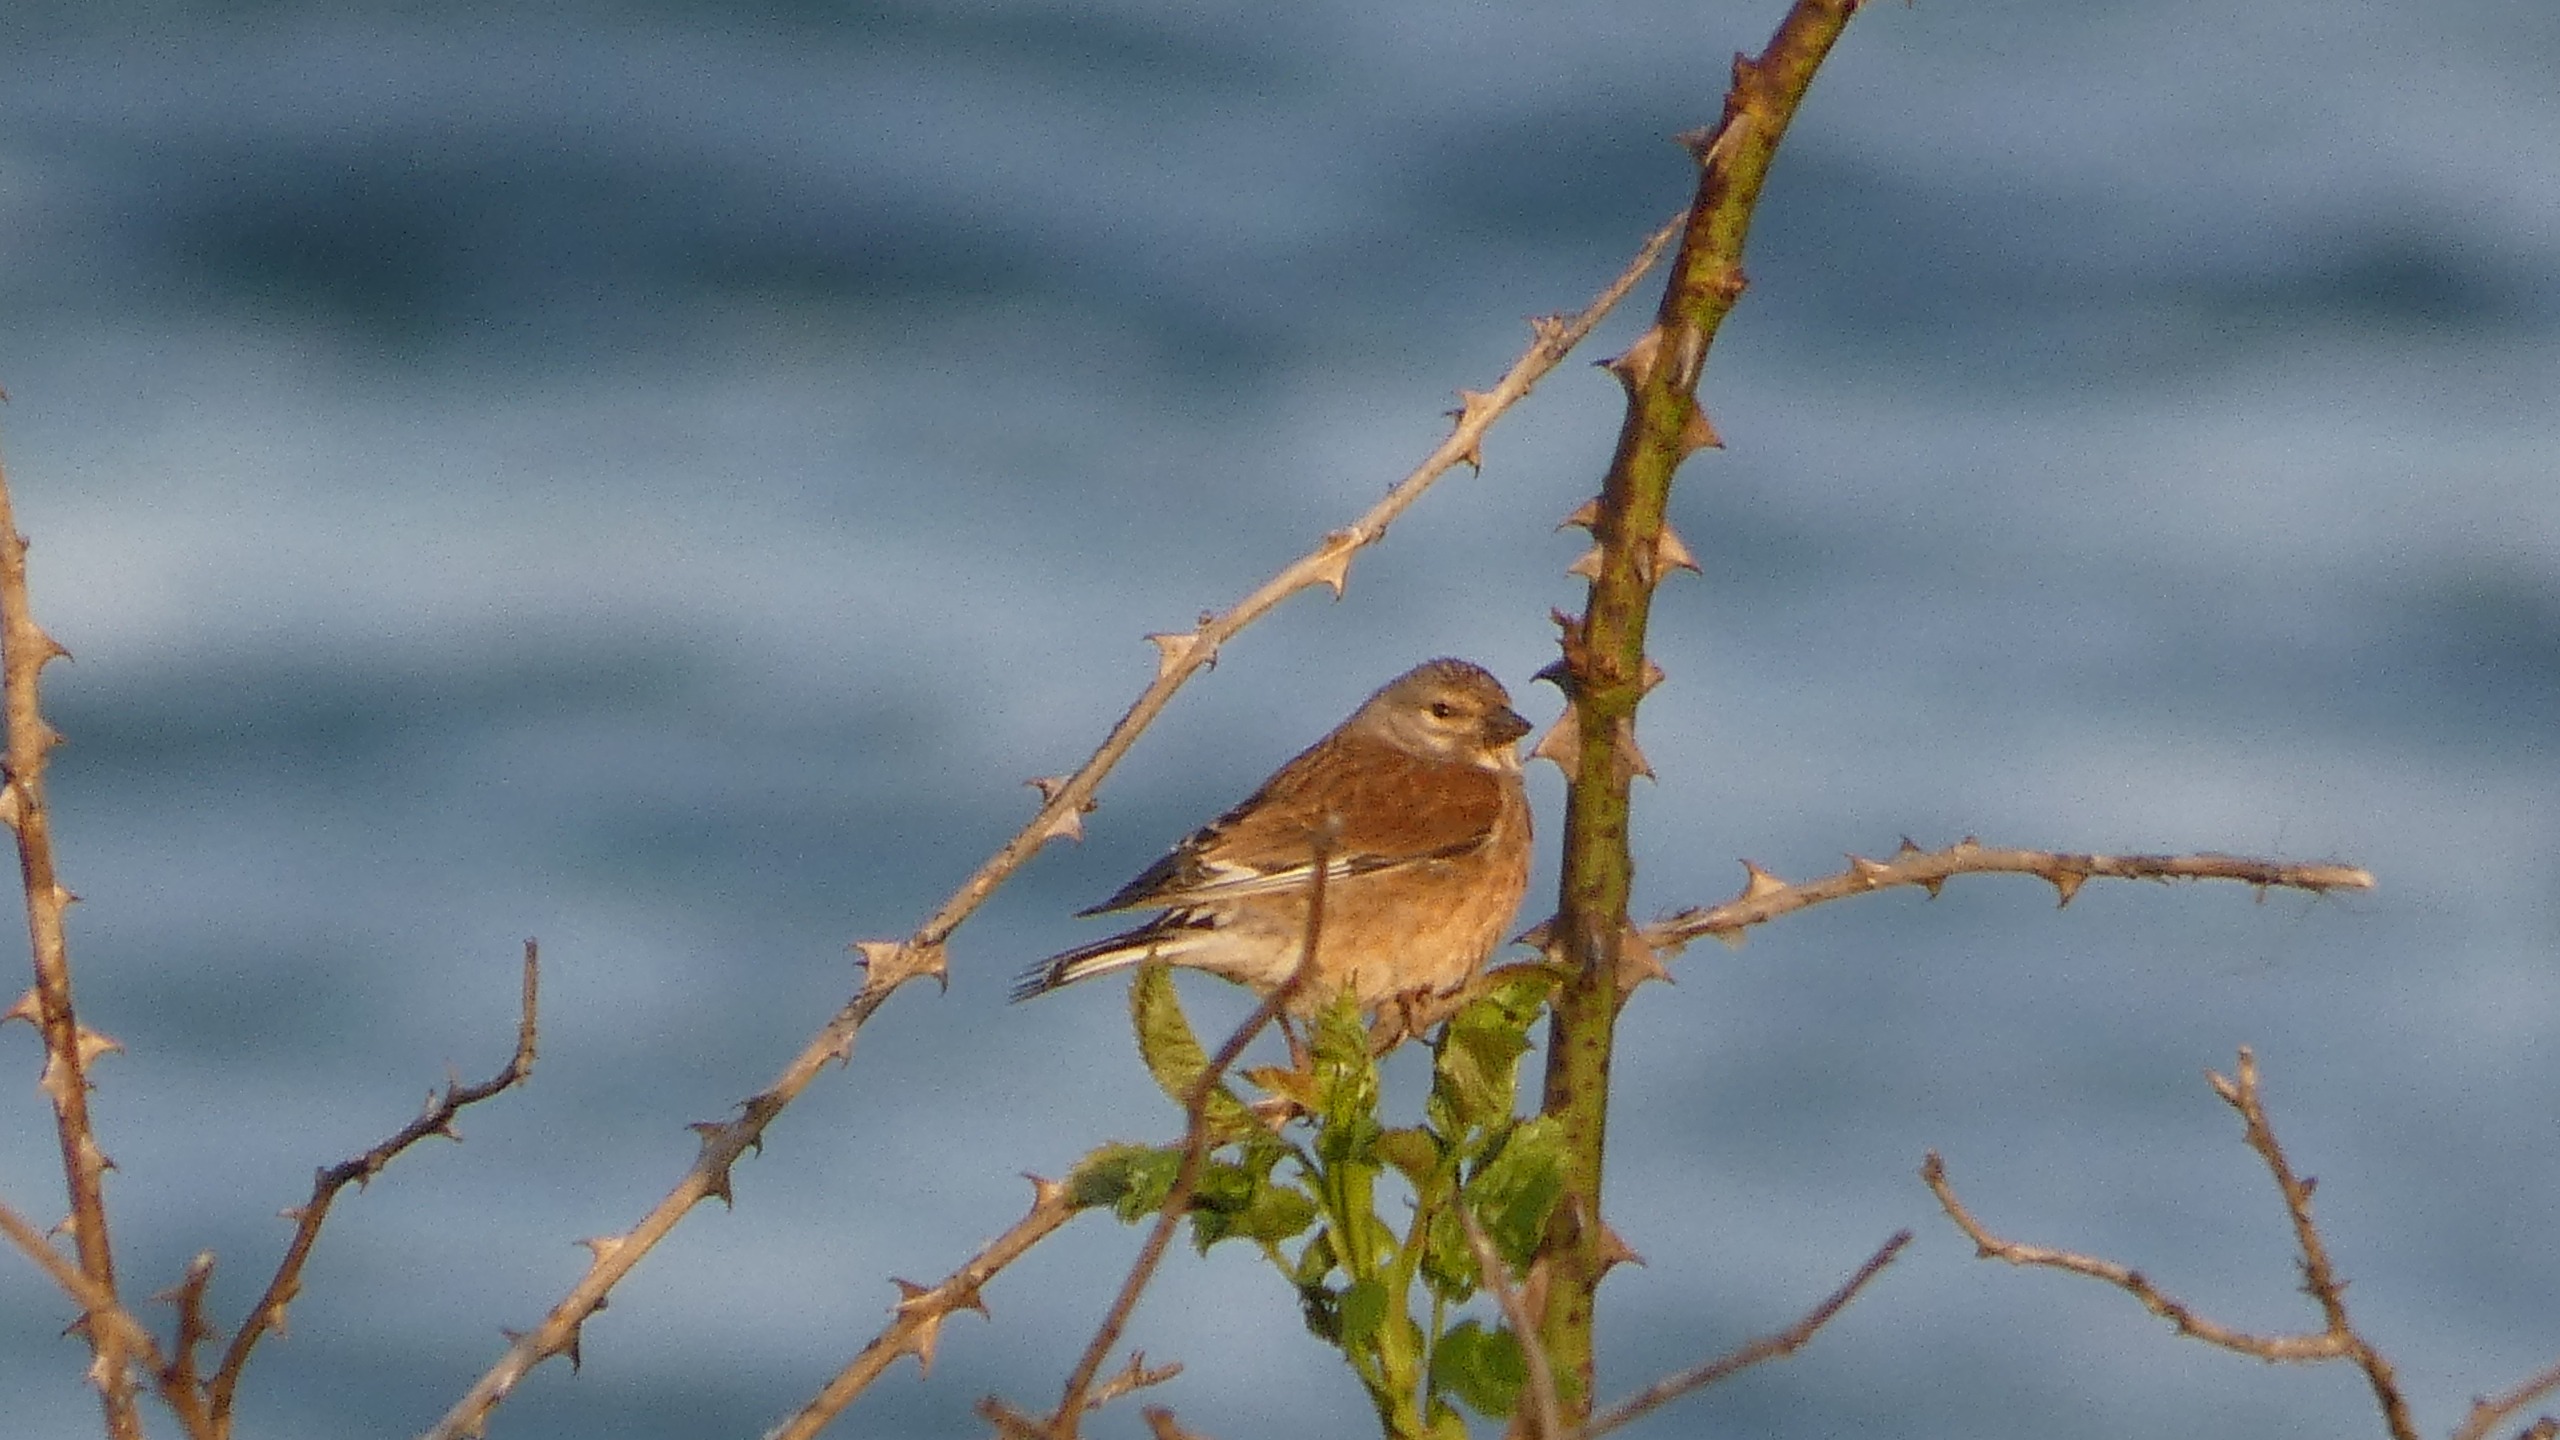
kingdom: Animalia
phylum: Chordata
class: Aves
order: Passeriformes
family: Fringillidae
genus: Linaria
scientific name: Linaria cannabina
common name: Tornirisk
